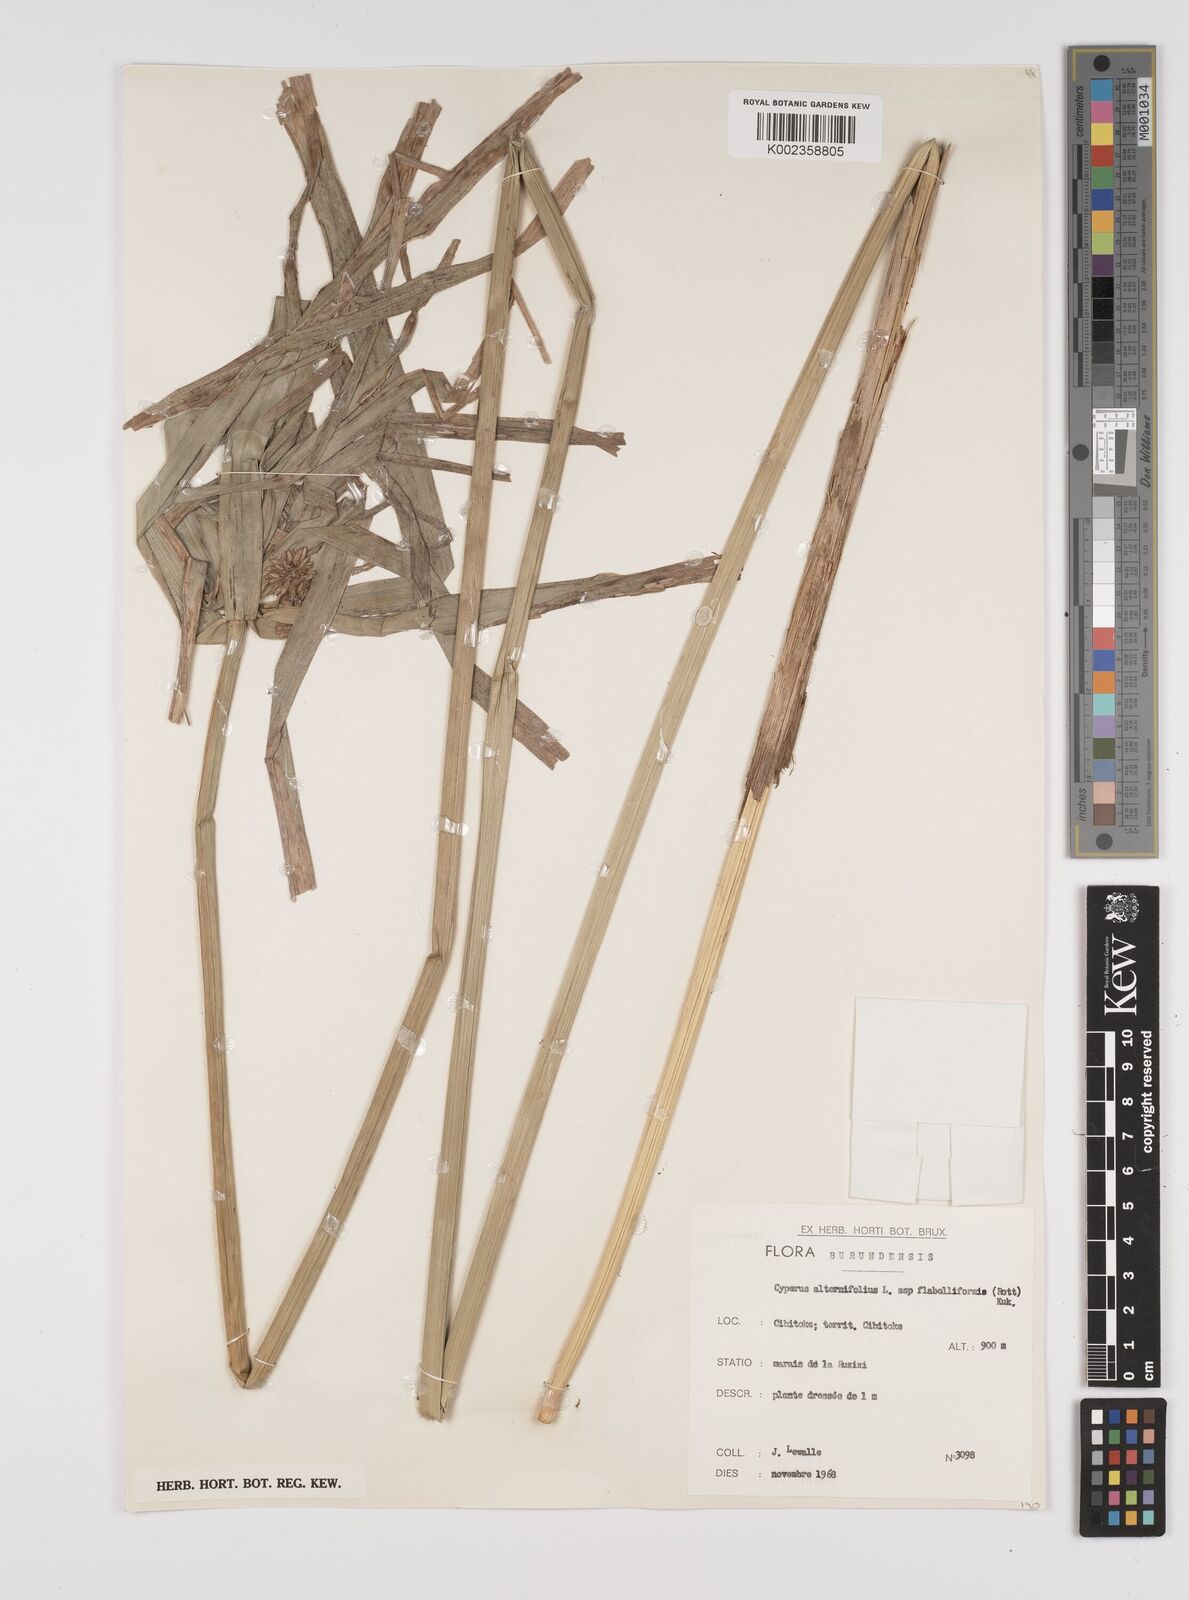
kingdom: Plantae
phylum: Tracheophyta
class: Liliopsida
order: Poales
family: Cyperaceae
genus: Cyperus
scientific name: Cyperus alternifolius
